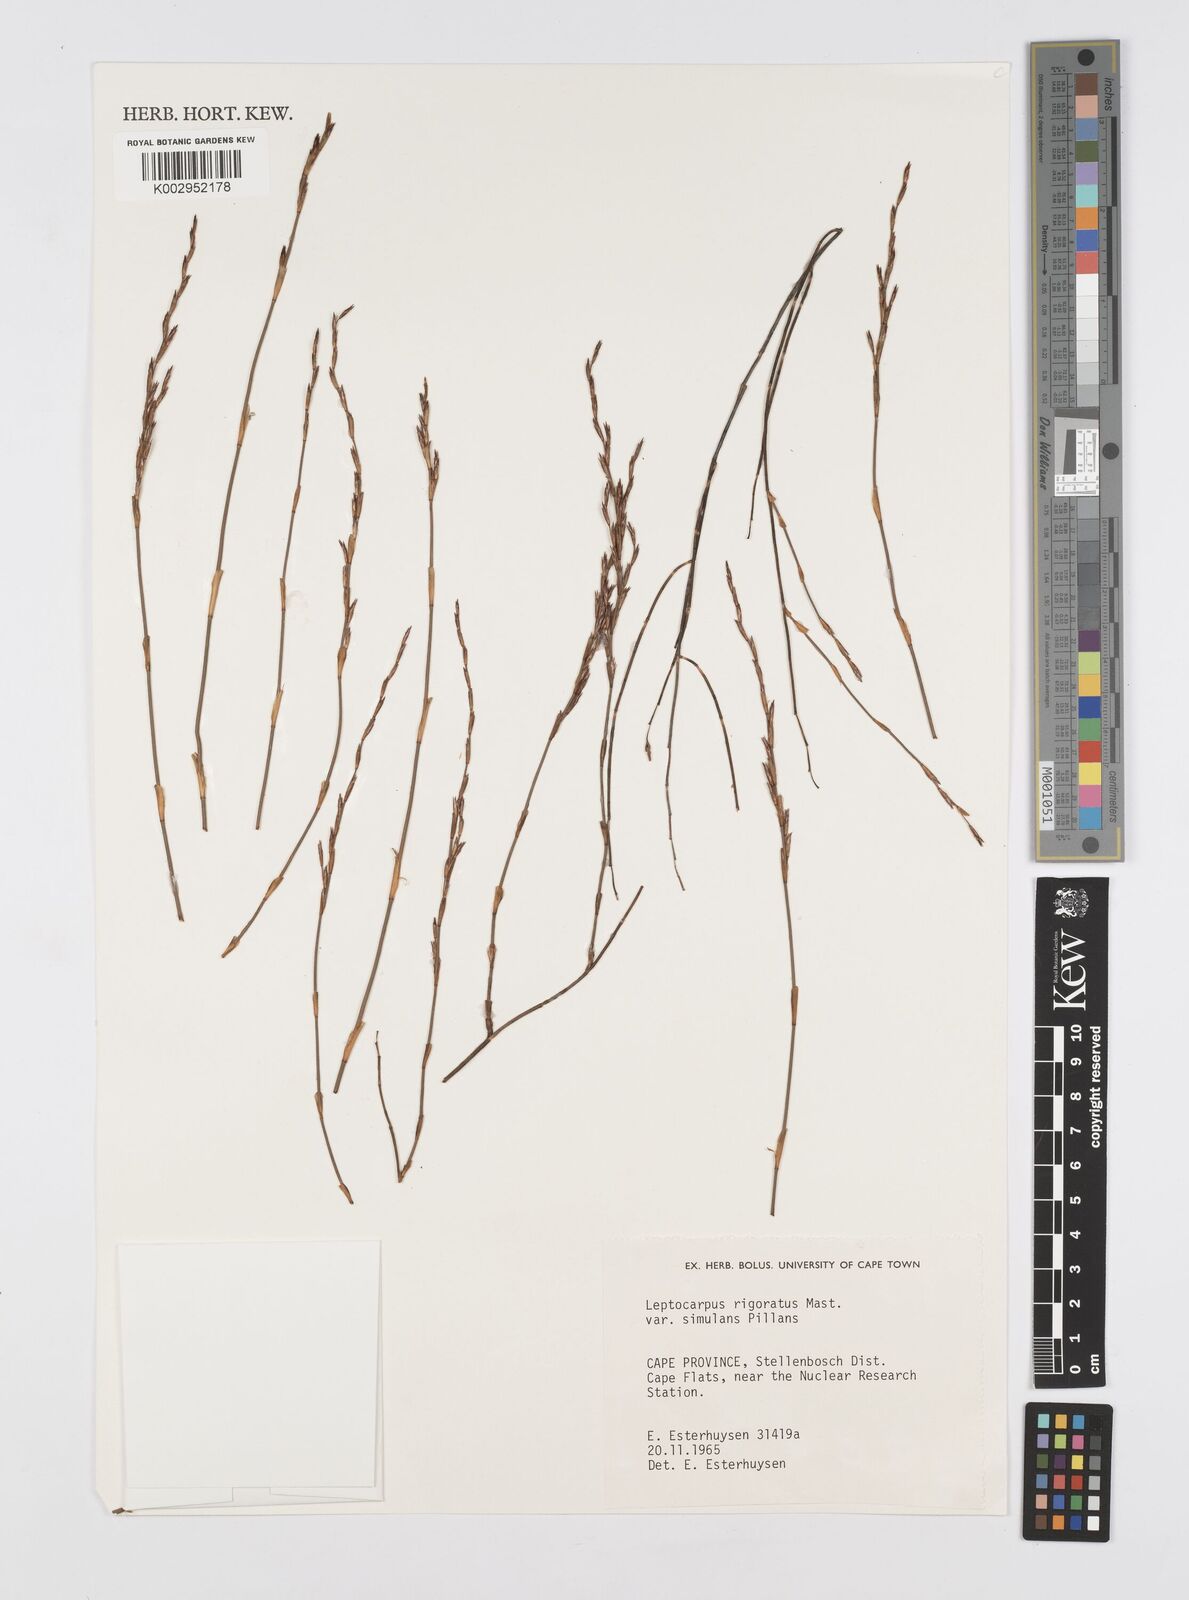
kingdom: Plantae
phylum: Tracheophyta
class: Liliopsida
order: Poales
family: Restionaceae
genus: Restio
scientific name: Restio rigoratus
